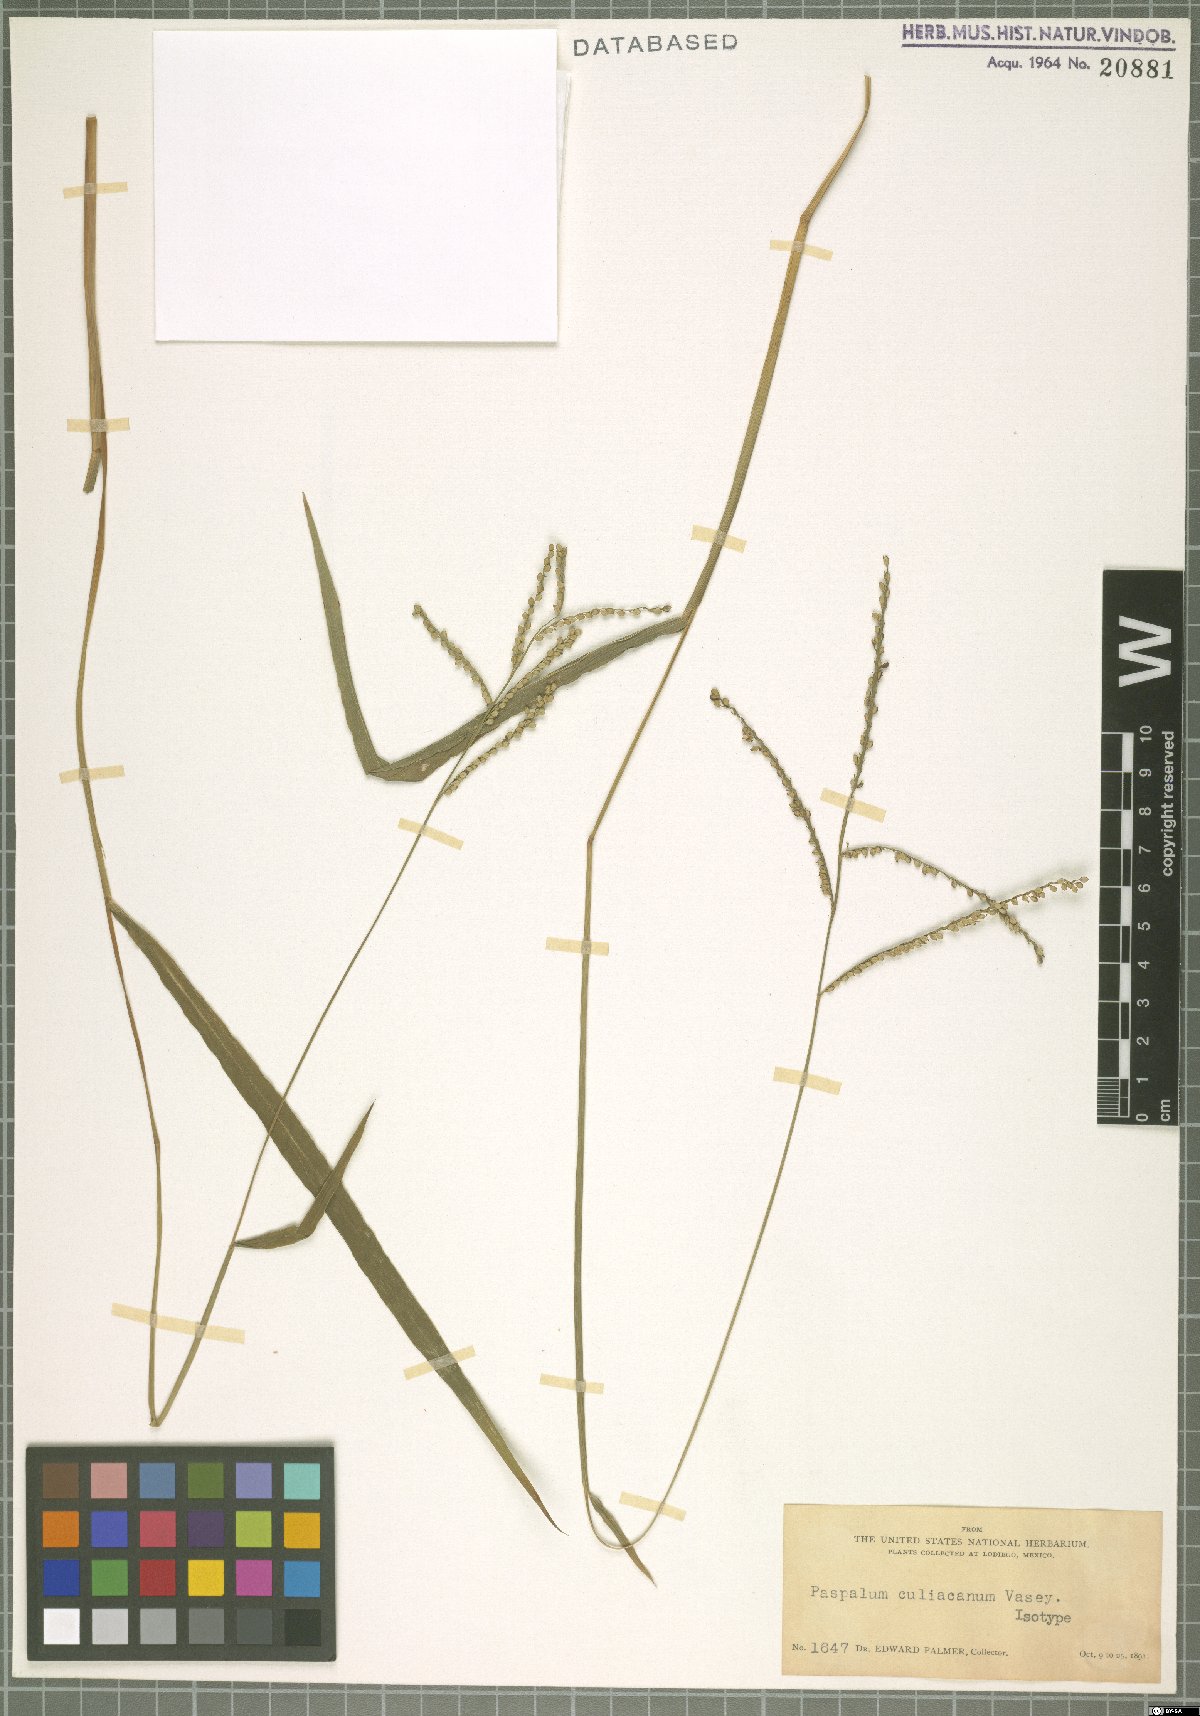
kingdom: Plantae
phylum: Tracheophyta
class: Liliopsida
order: Poales
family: Poaceae
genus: Paspalum
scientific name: Paspalum culiacanum
